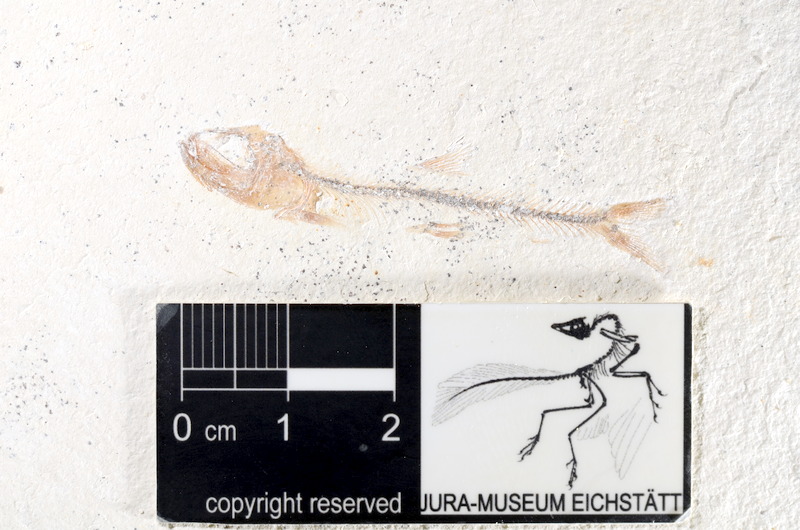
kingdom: Animalia
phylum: Chordata
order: Salmoniformes
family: Orthogonikleithridae
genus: Orthogonikleithrus
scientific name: Orthogonikleithrus hoelli
